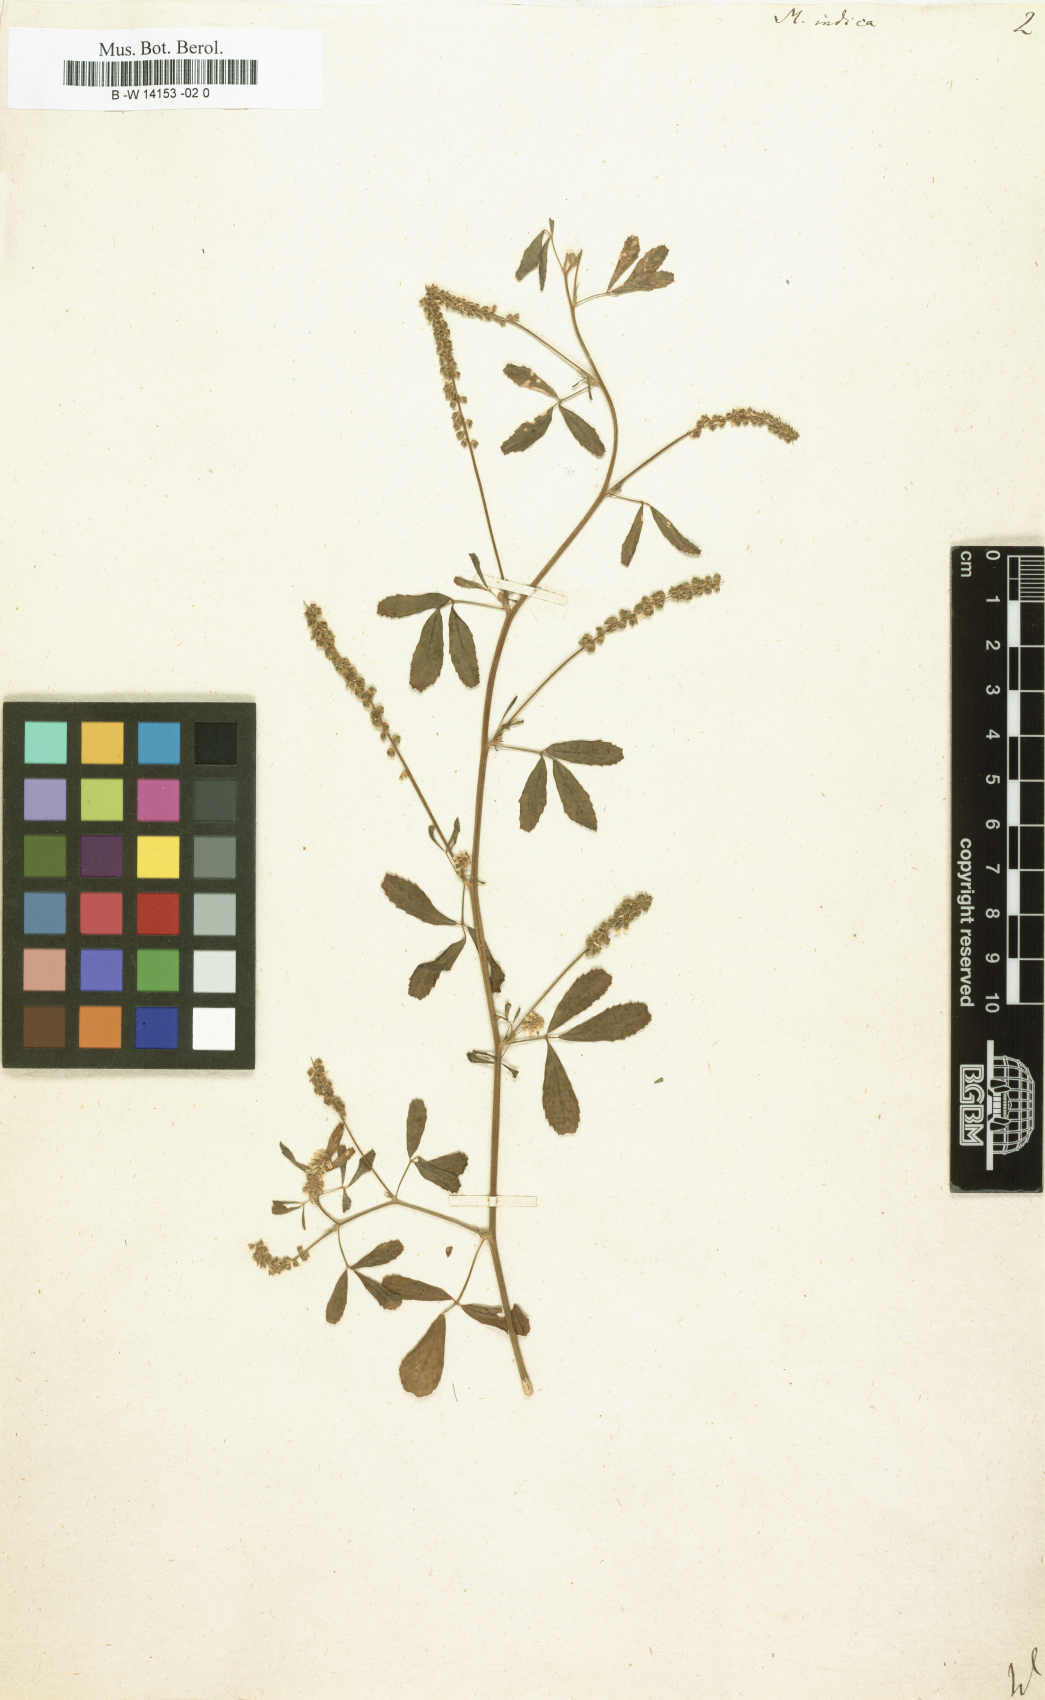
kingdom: Plantae
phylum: Tracheophyta
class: Magnoliopsida
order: Fabales
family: Fabaceae
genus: Melilotus
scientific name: Melilotus indicus
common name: Small melilot
